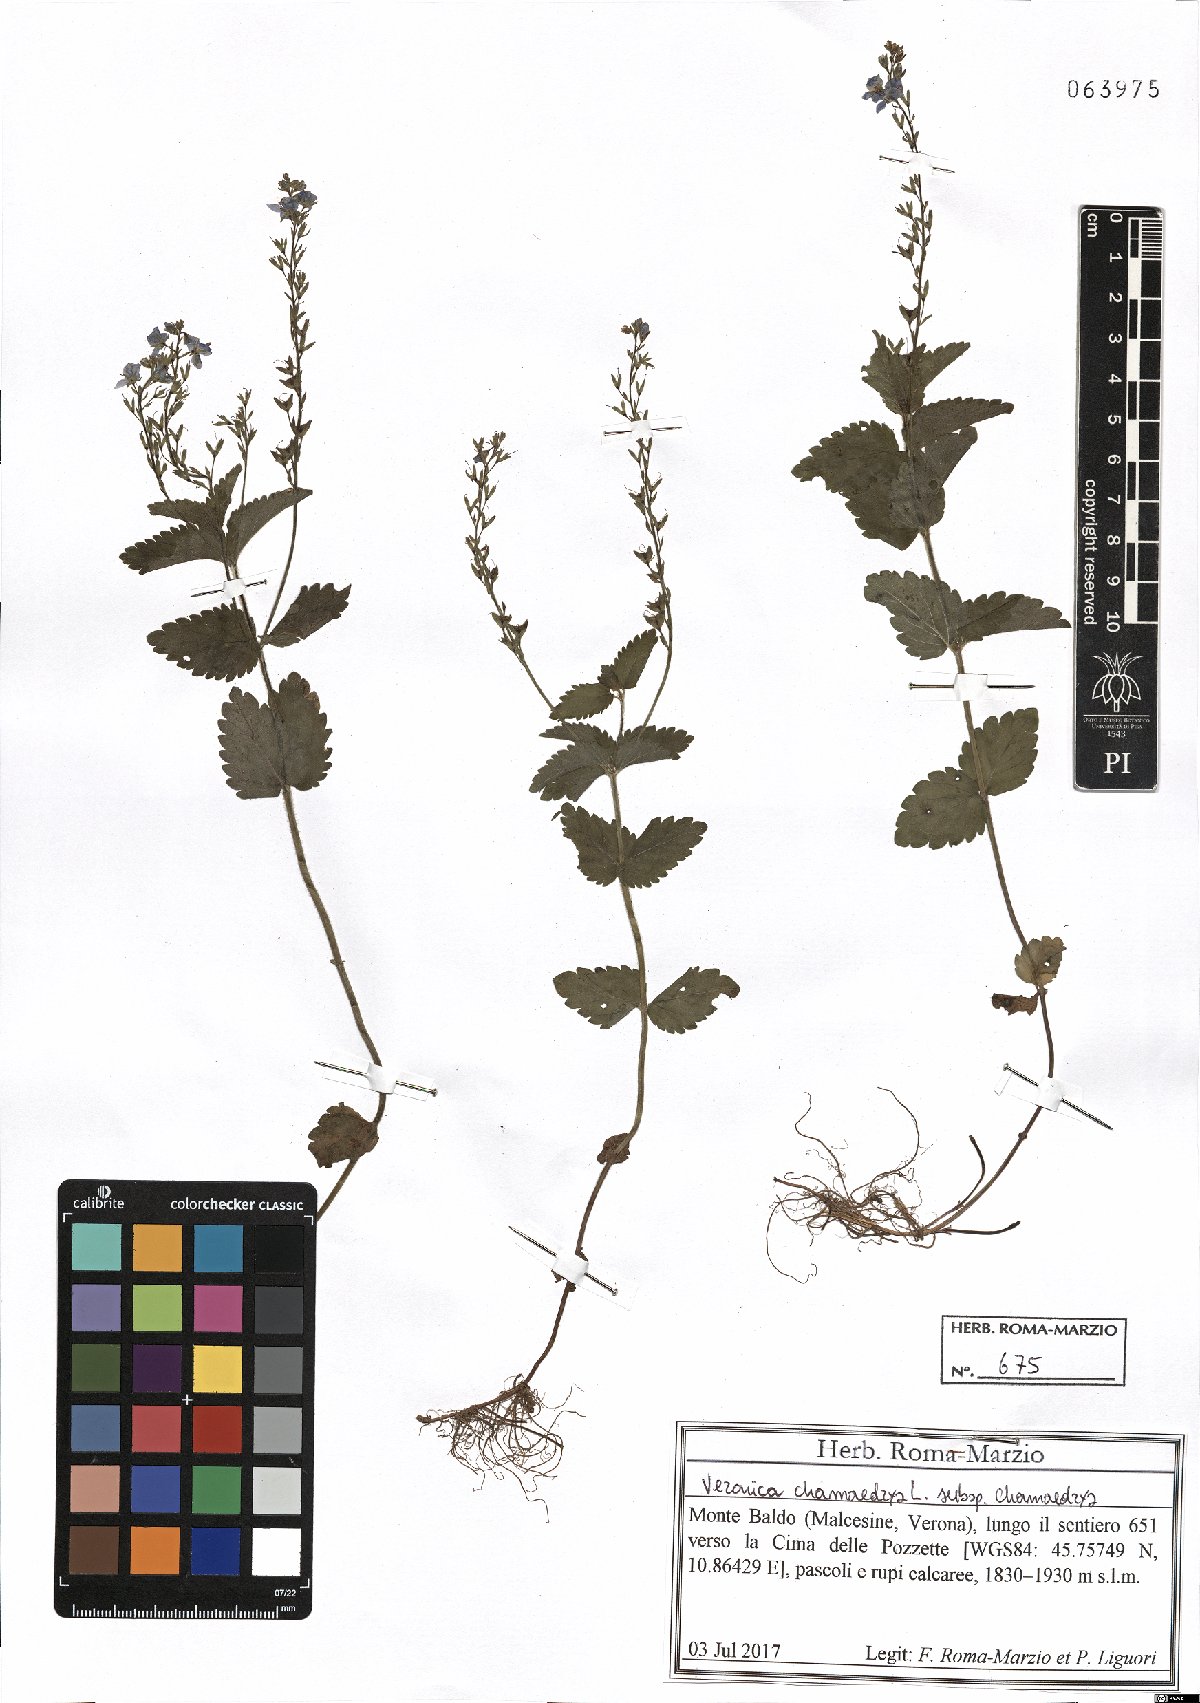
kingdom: Plantae
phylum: Tracheophyta
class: Magnoliopsida
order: Lamiales
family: Plantaginaceae
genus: Veronica
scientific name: Veronica chamaedrys
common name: Germander speedwell
